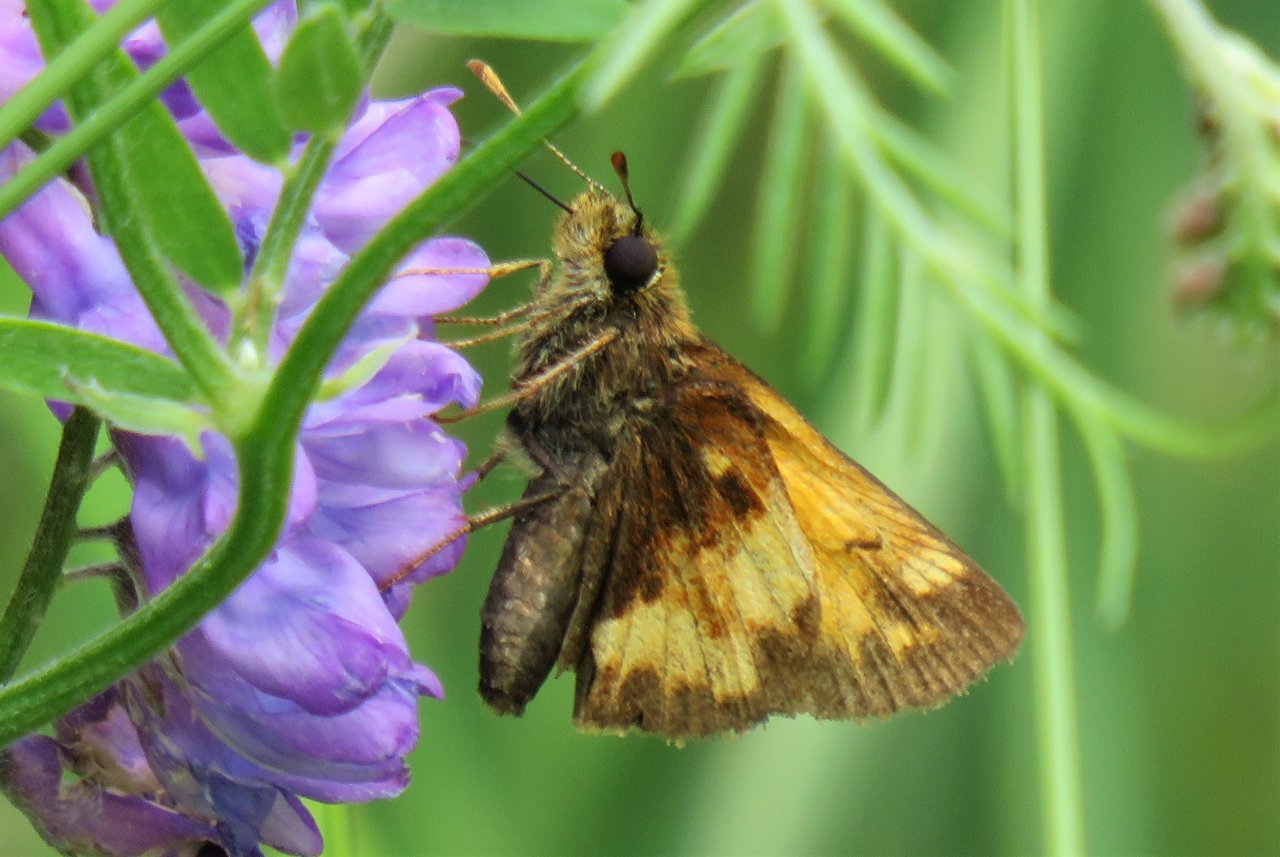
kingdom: Animalia
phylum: Arthropoda
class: Insecta
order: Lepidoptera
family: Hesperiidae
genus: Lon
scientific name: Lon hobomok
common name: Hobomok Skipper
